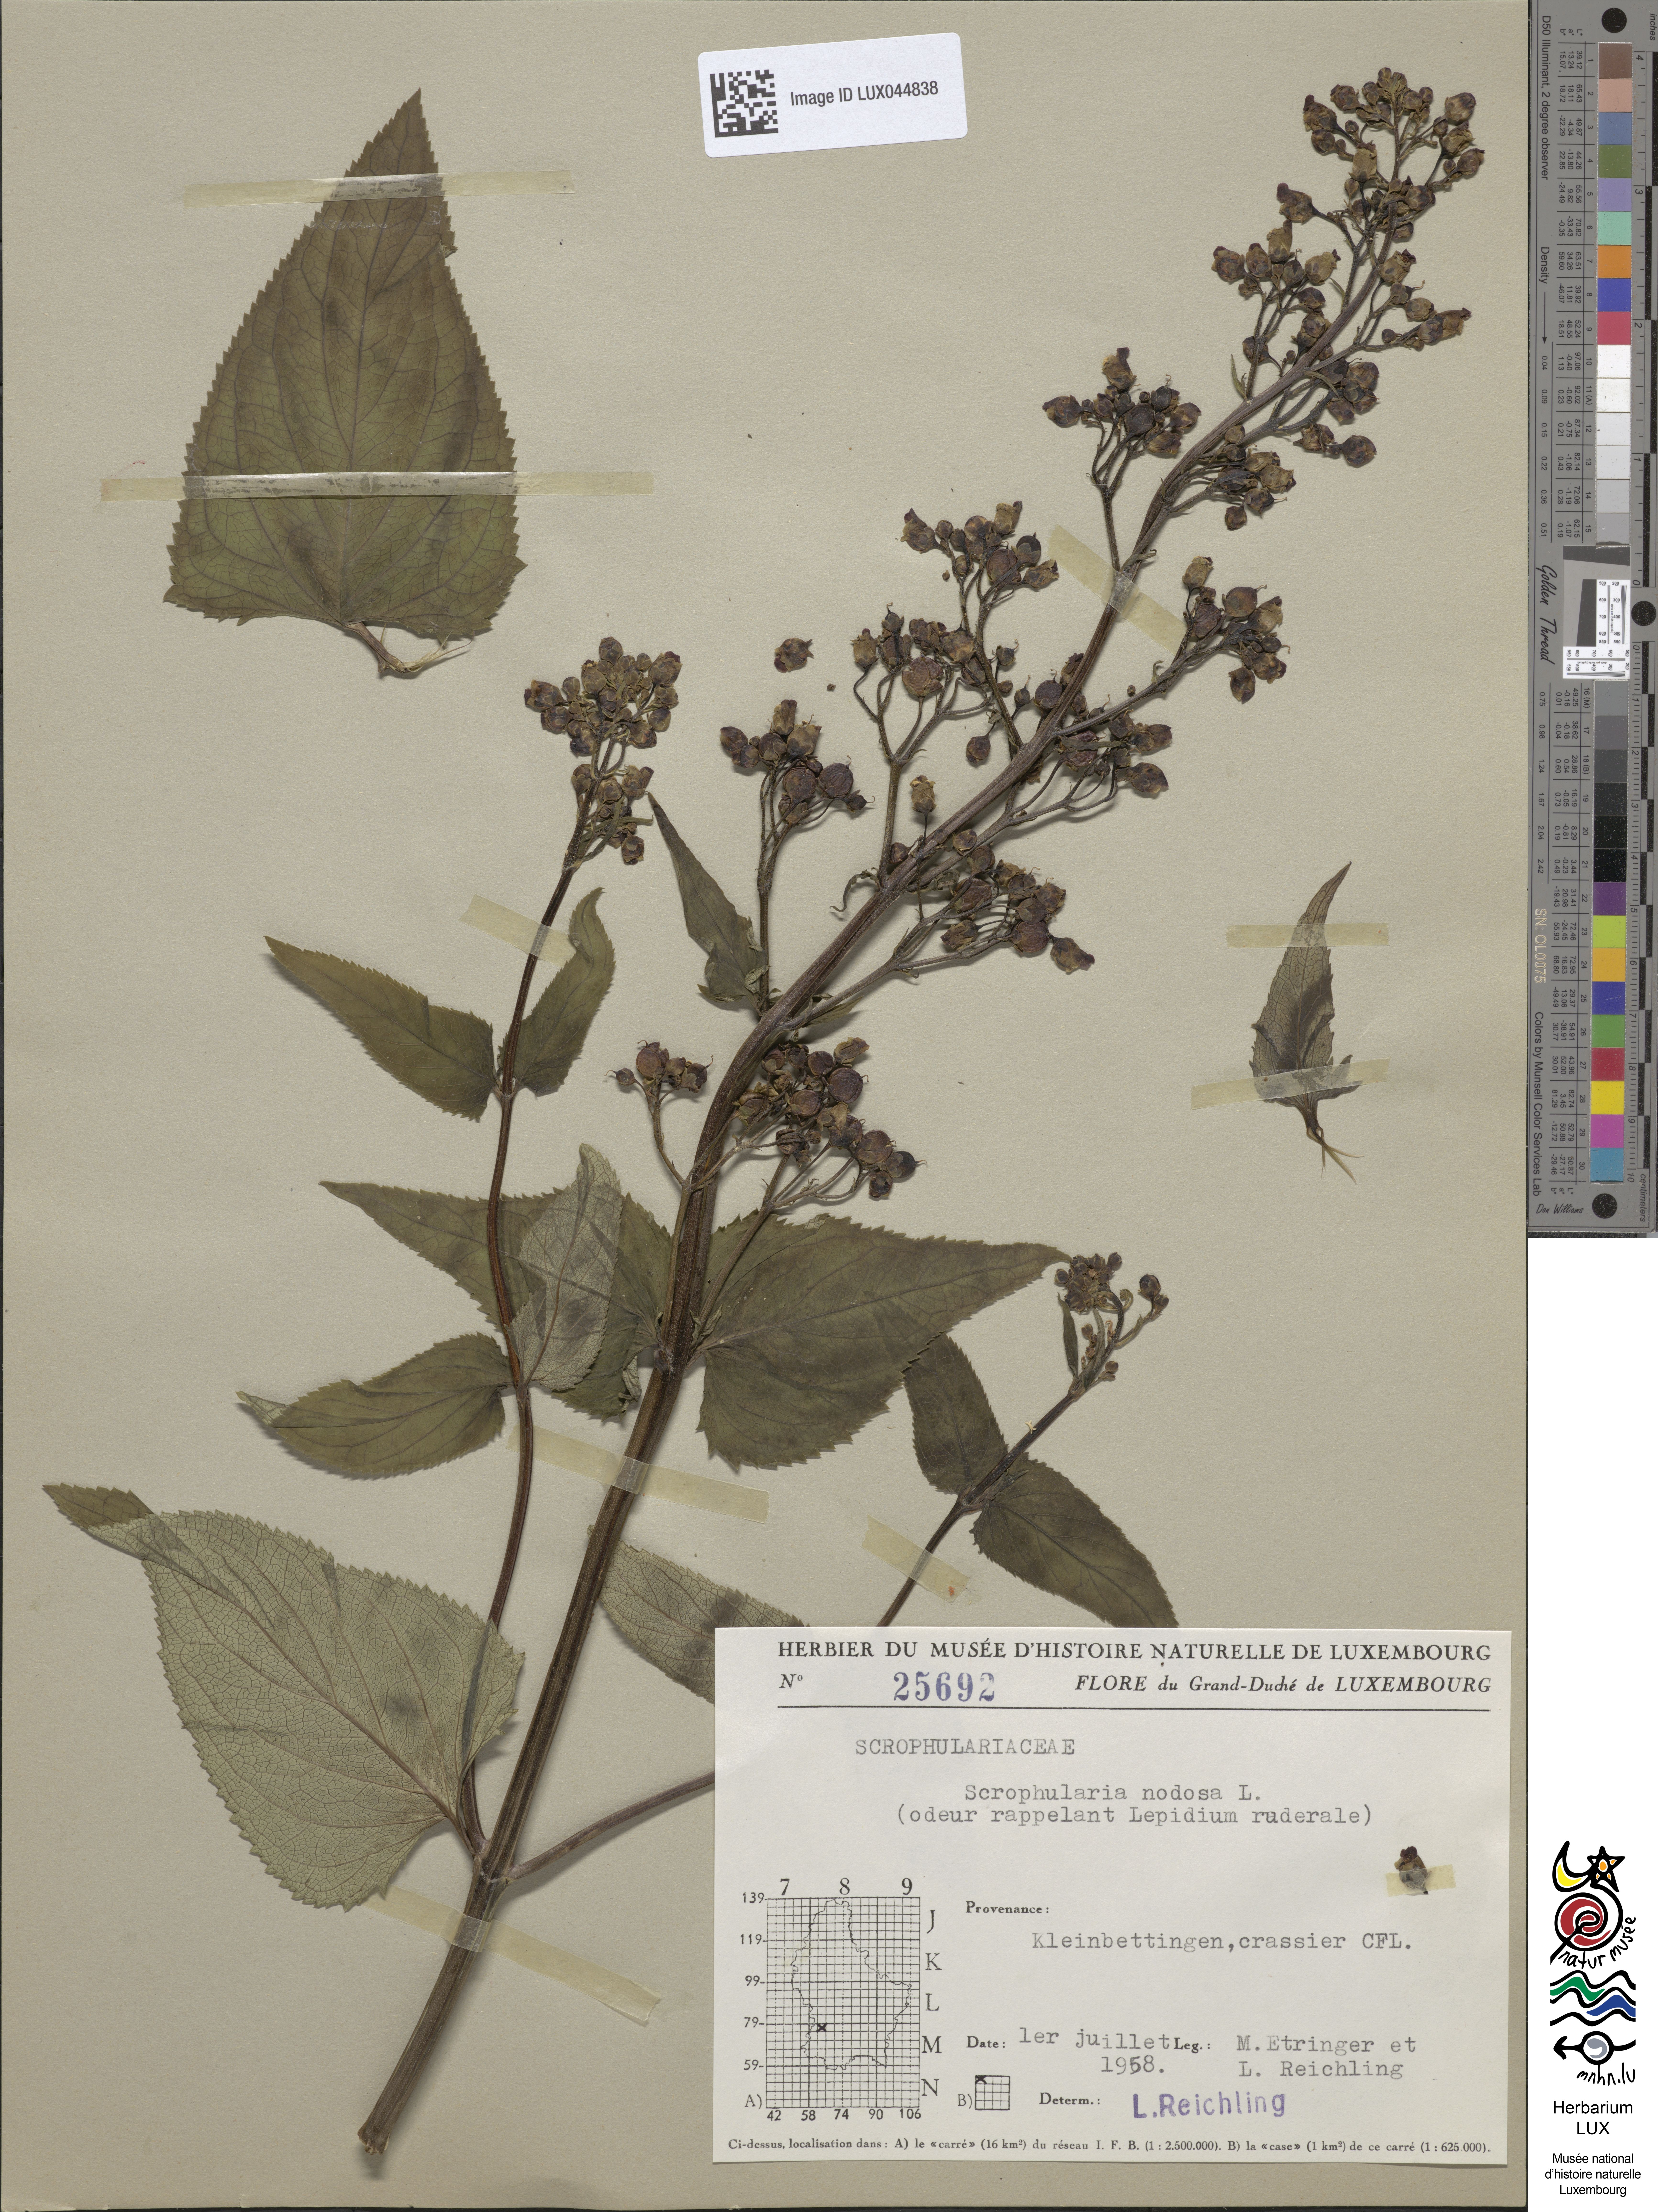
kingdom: Plantae
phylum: Tracheophyta
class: Magnoliopsida
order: Lamiales
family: Scrophulariaceae
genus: Scrophularia
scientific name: Scrophularia nodosa
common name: Common figwort
